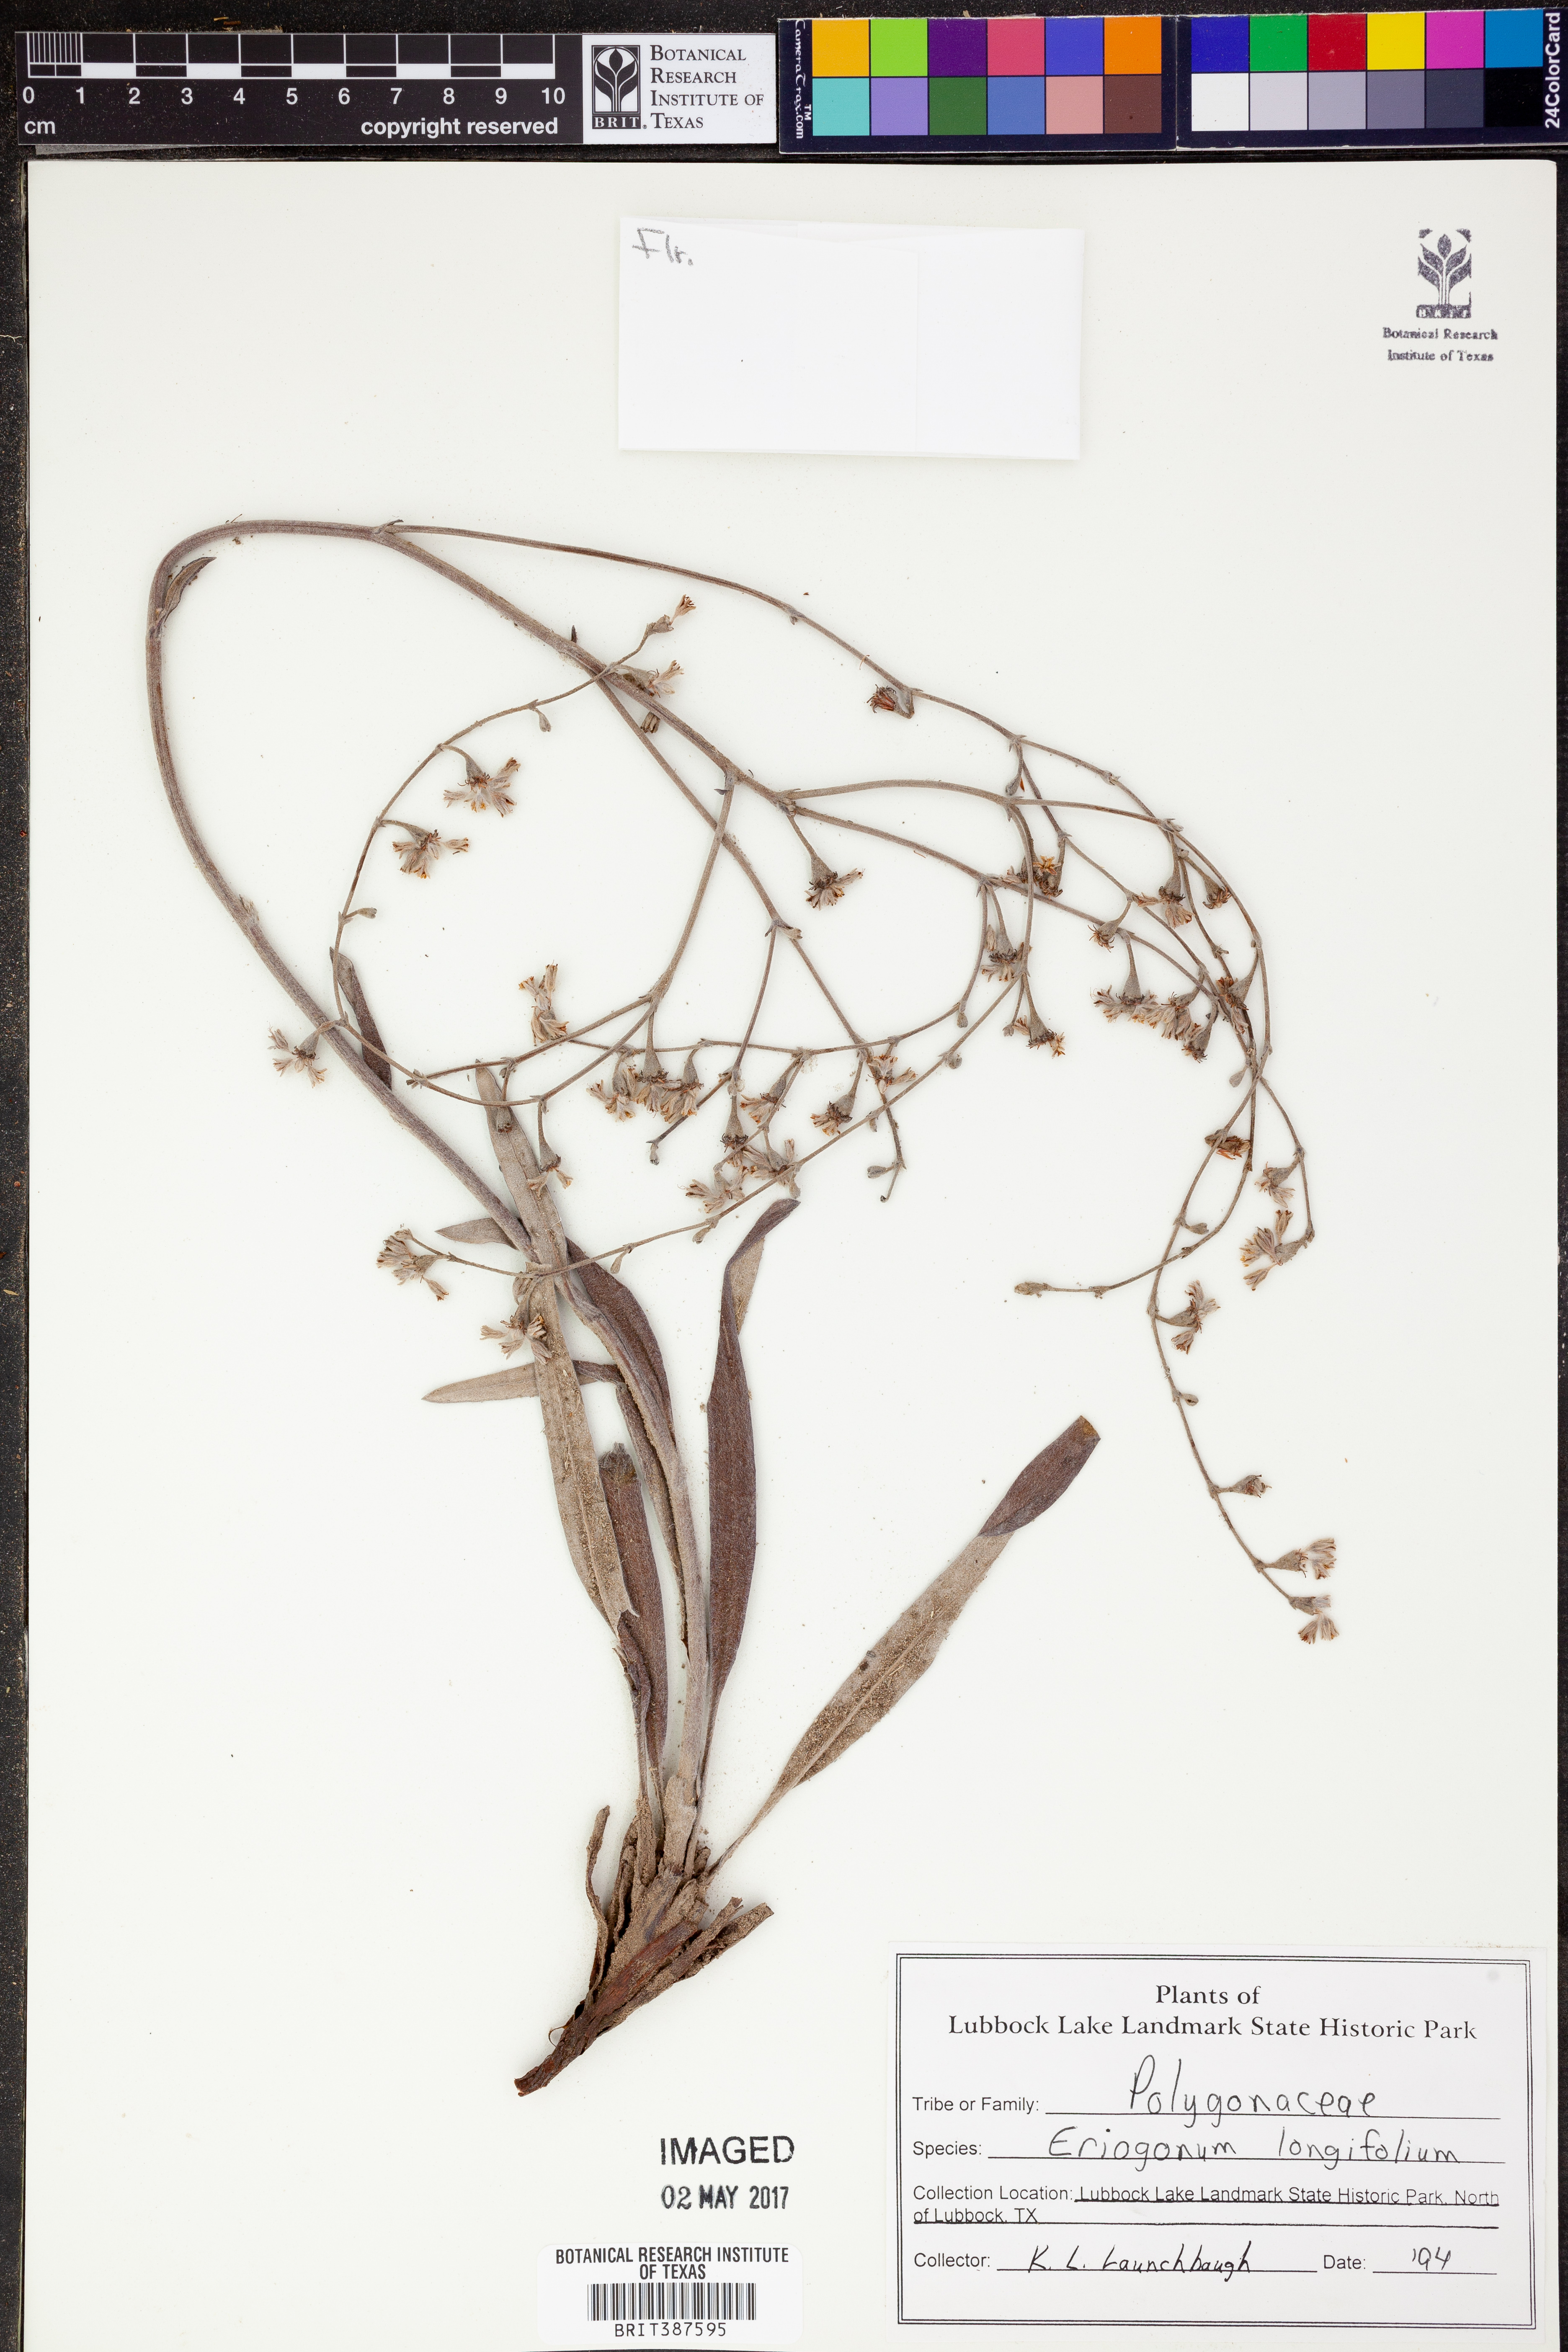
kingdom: Plantae
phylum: Tracheophyta
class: Magnoliopsida
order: Caryophyllales
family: Polygonaceae
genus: Eriogonum
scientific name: Eriogonum longifolium
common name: Longleaf wild buckwheat
